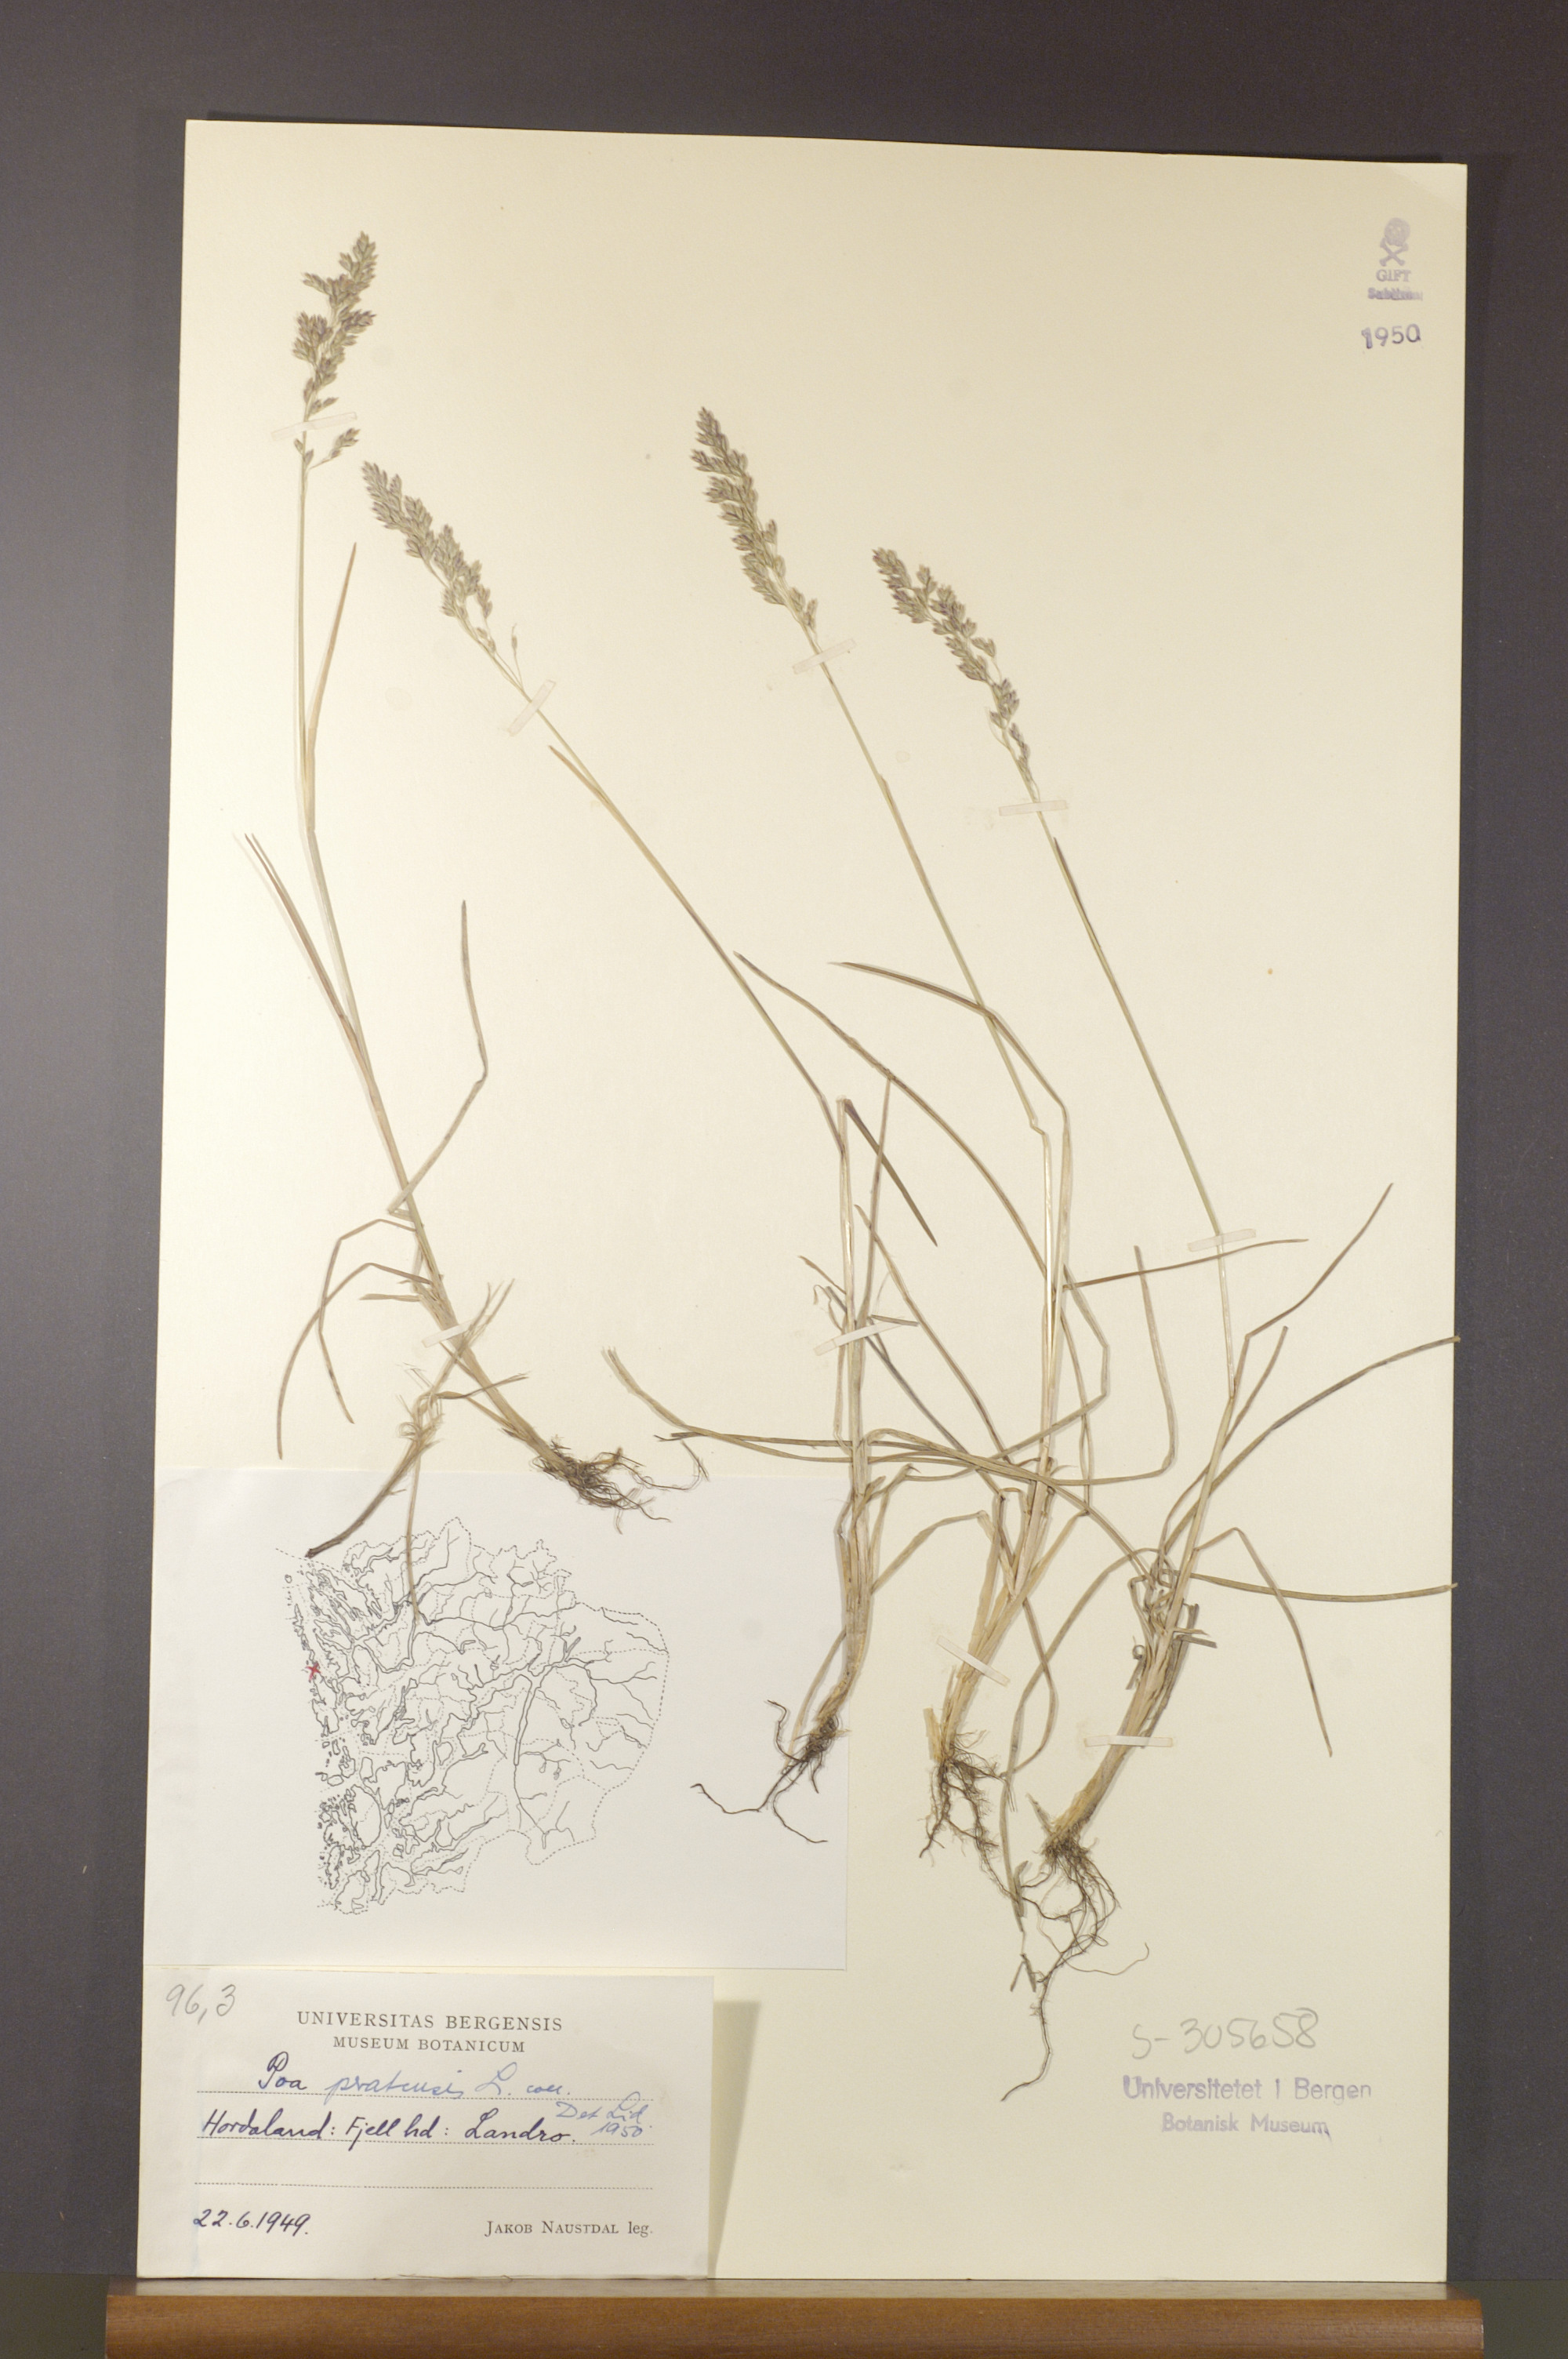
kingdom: Plantae
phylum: Tracheophyta
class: Liliopsida
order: Poales
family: Poaceae
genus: Poa
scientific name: Poa pratensis
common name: Kentucky bluegrass
